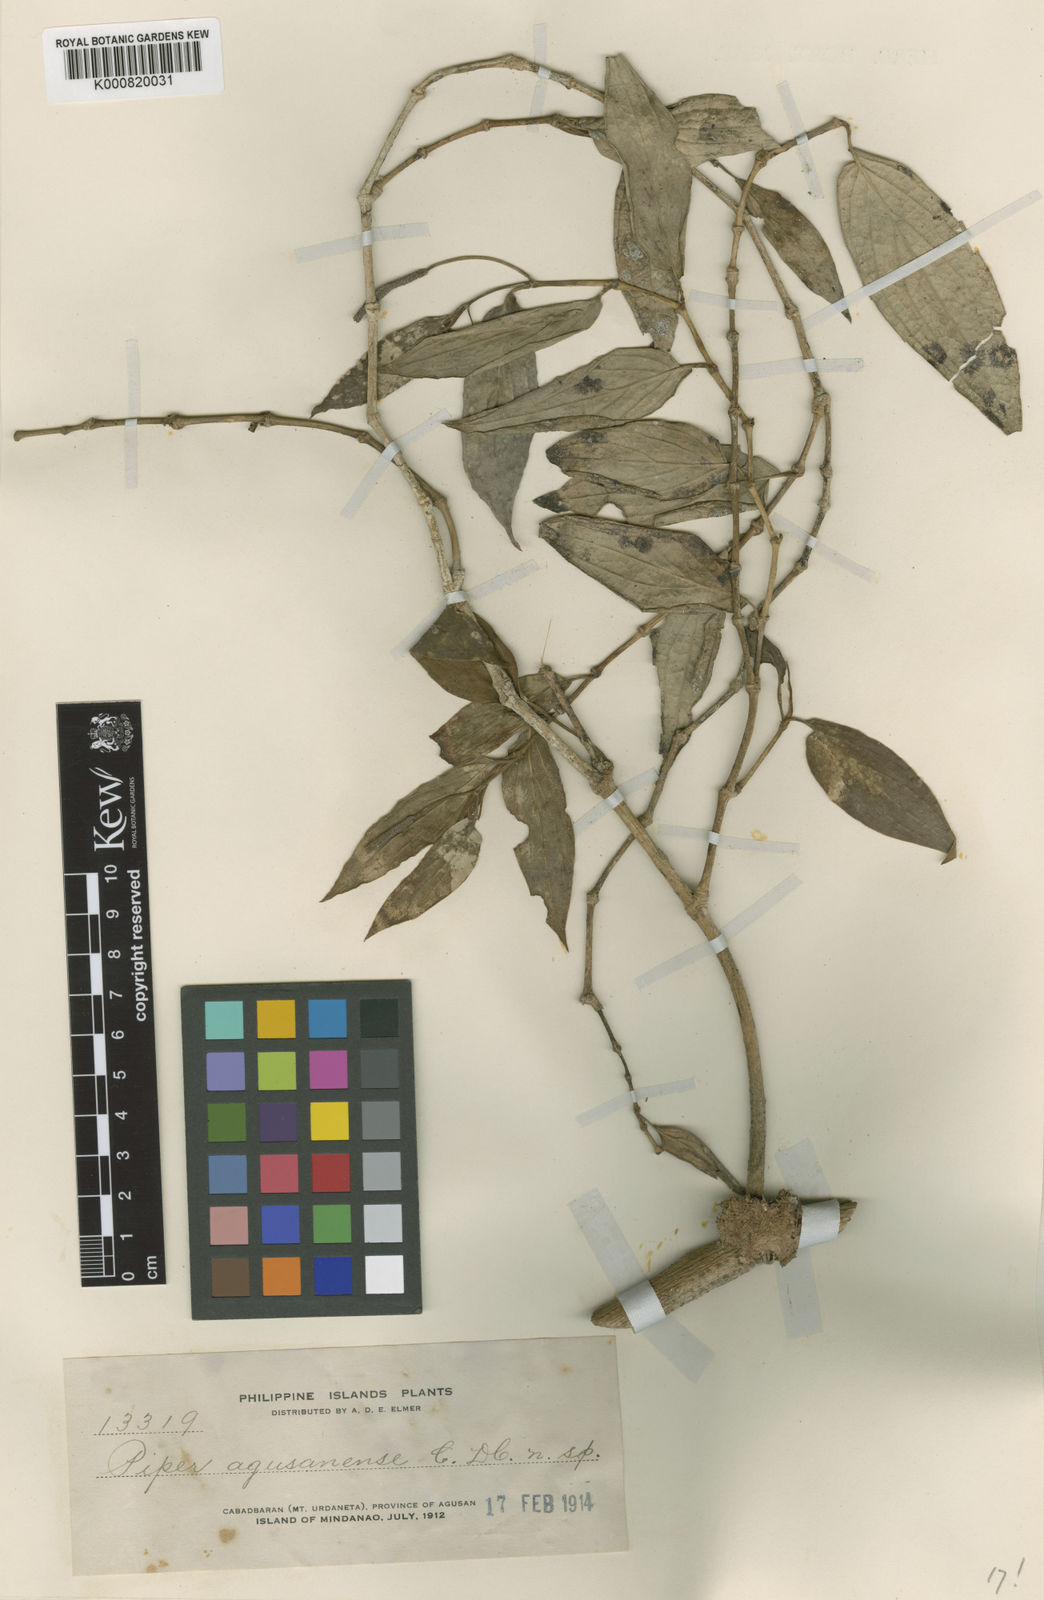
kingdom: Plantae
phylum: Tracheophyta
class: Magnoliopsida
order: Piperales
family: Piperaceae
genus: Piper
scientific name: Piper agusanense
